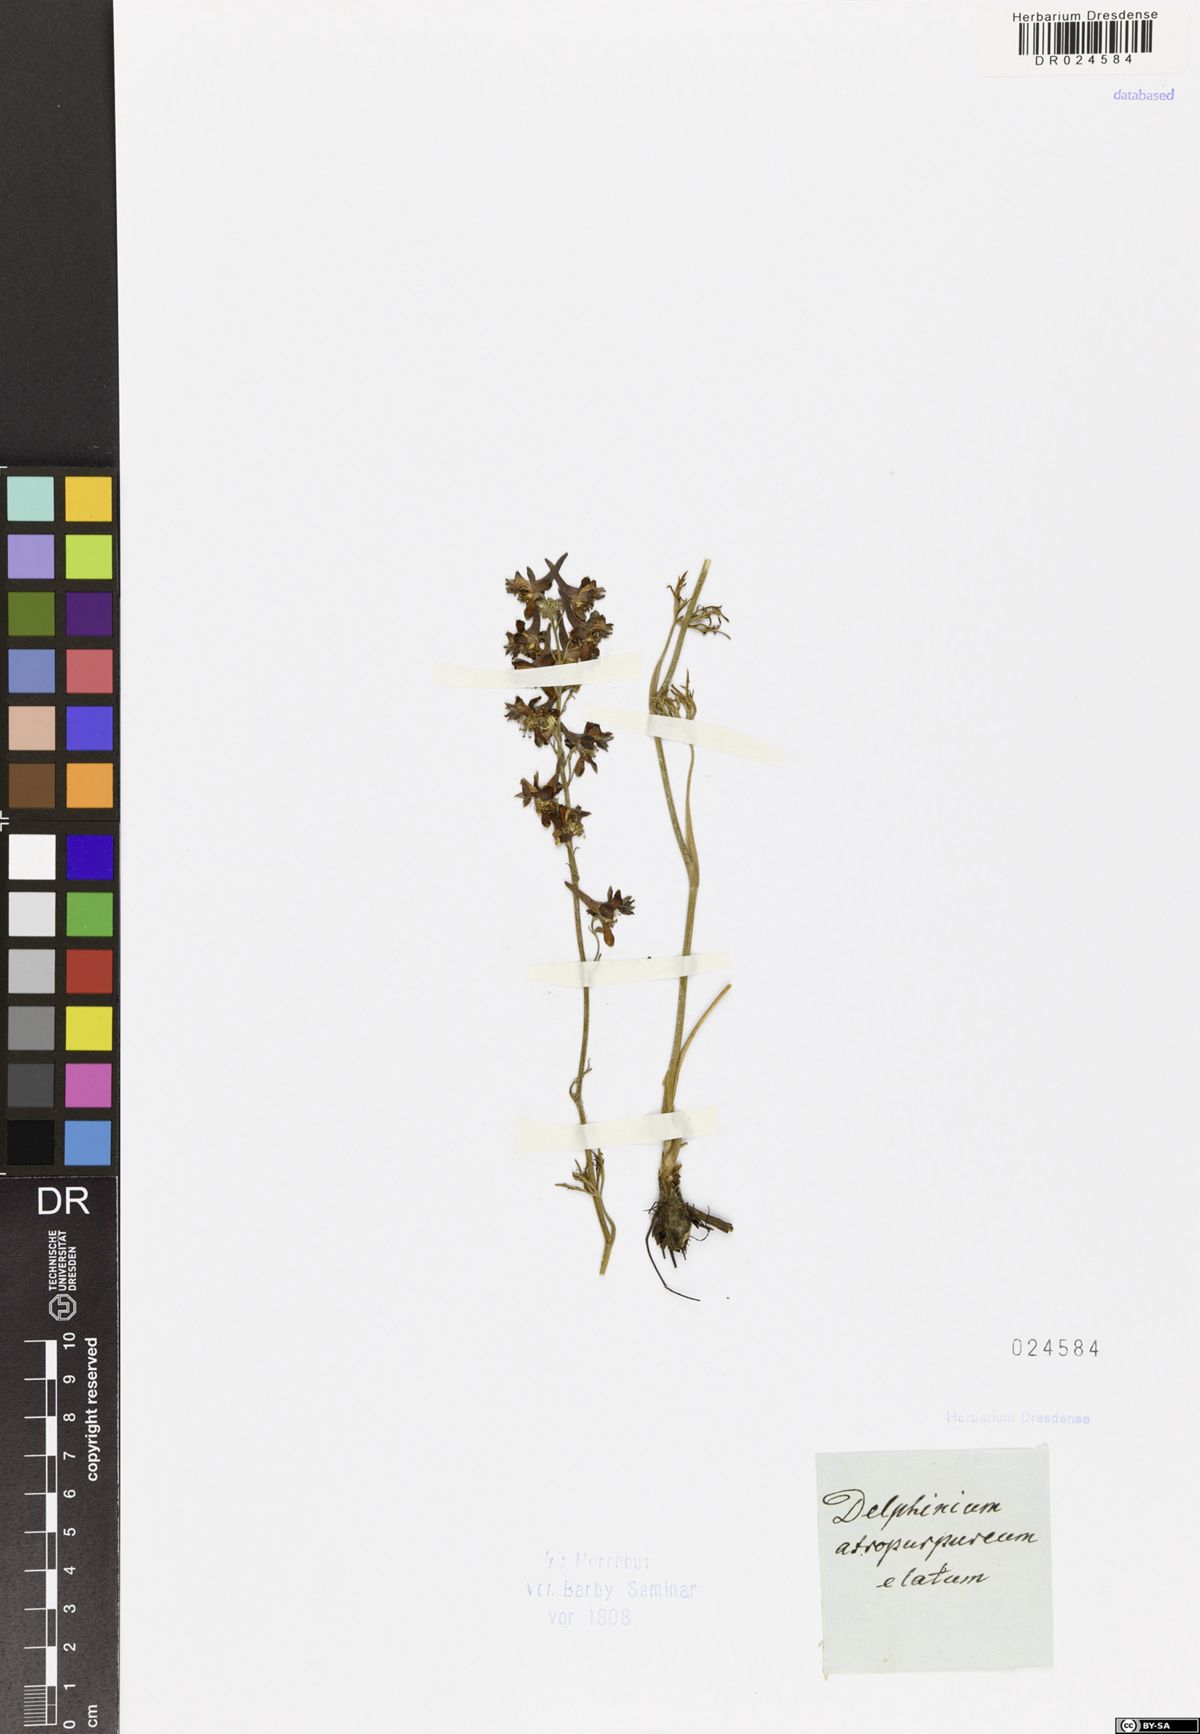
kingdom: Plantae
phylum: Tracheophyta
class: Magnoliopsida
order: Ranunculales
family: Ranunculaceae
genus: Delphinium
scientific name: Delphinium puniceum
